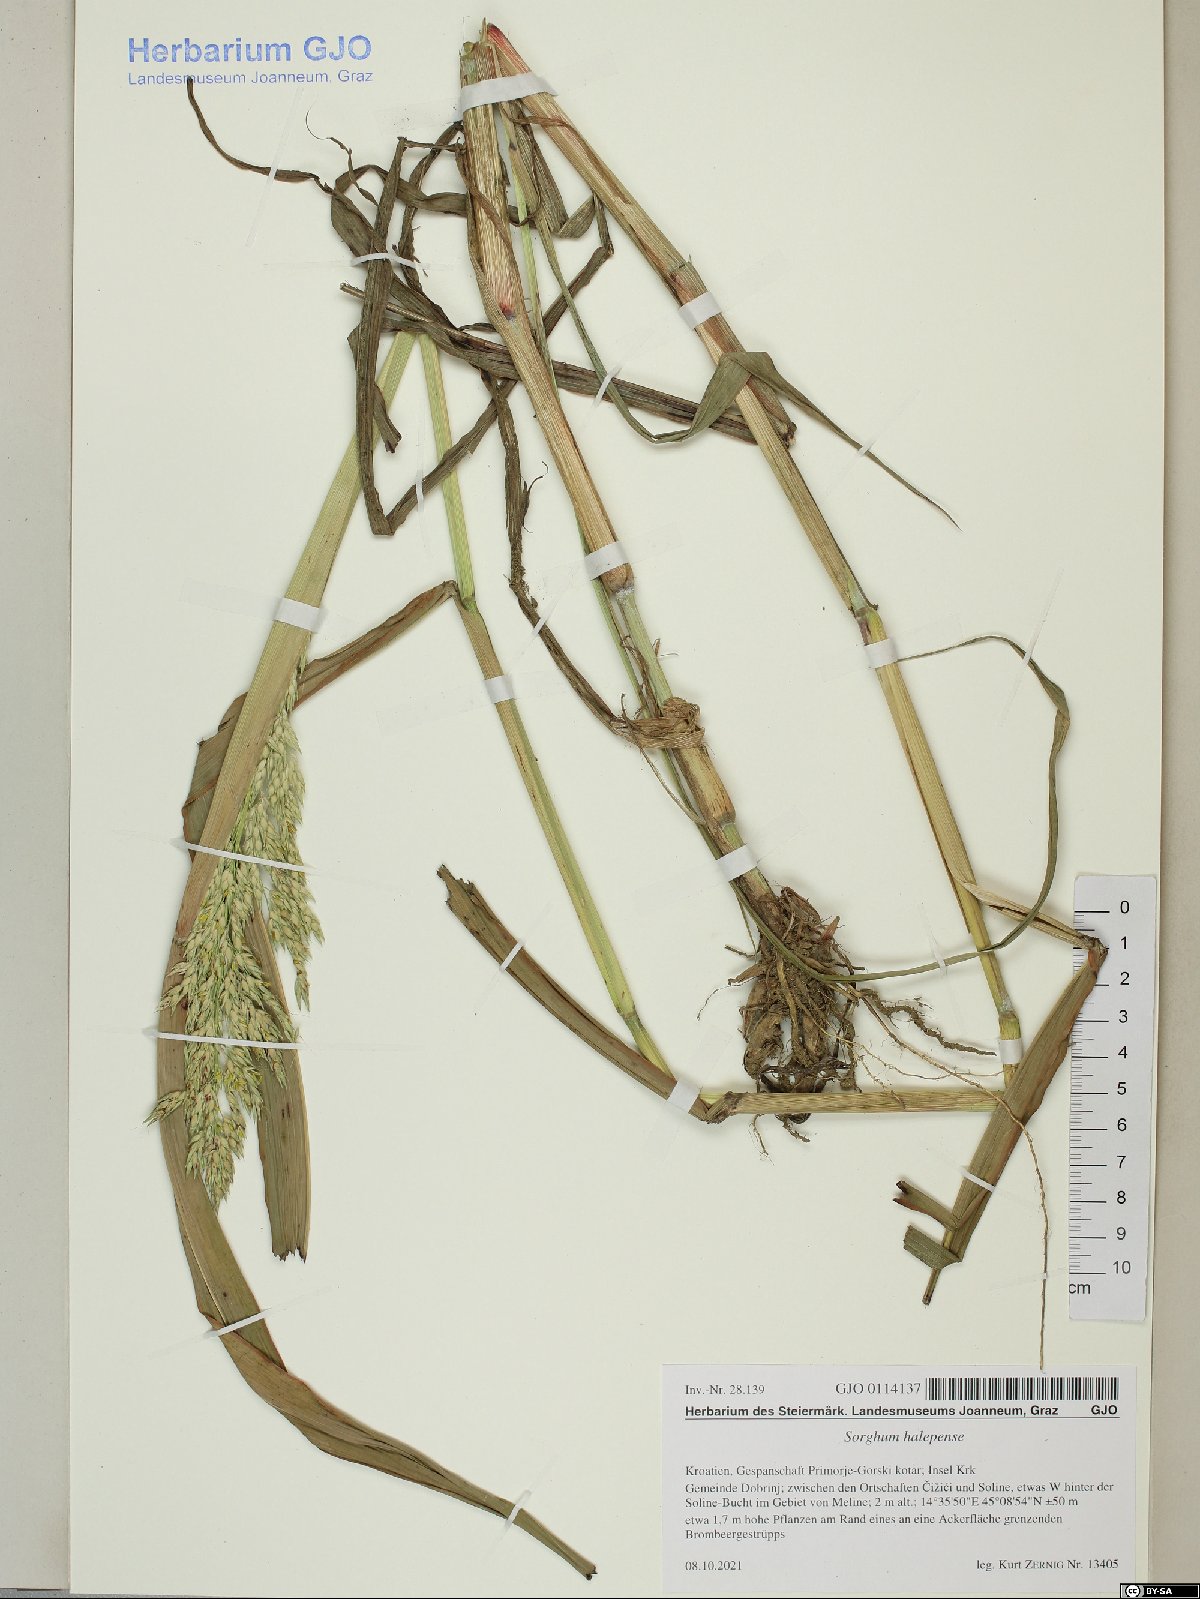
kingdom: Plantae
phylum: Tracheophyta
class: Liliopsida
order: Poales
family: Poaceae
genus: Sorghum
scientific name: Sorghum halepense
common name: Johnson-grass
